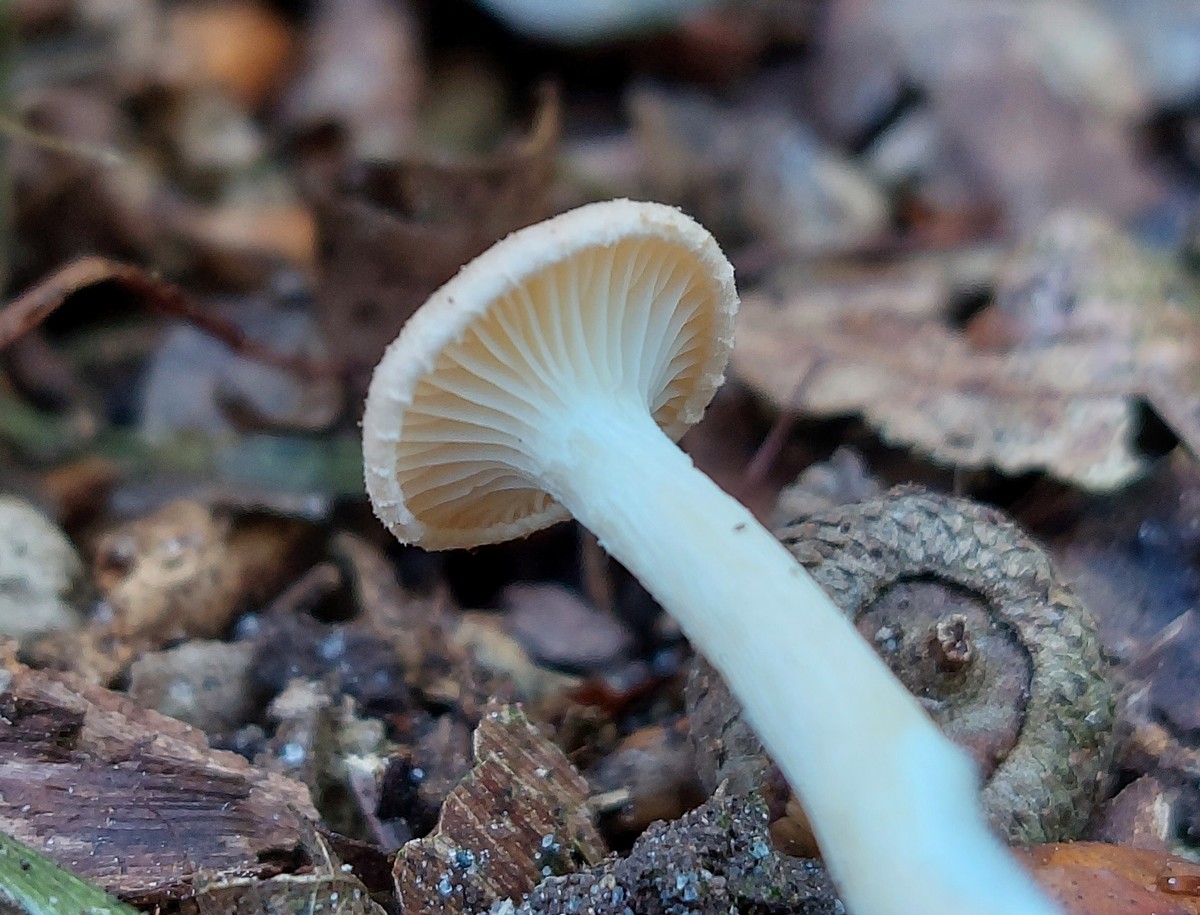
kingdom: Fungi
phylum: Basidiomycota
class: Agaricomycetes
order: Agaricales
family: Tricholomataceae
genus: Infundibulicybe
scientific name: Infundibulicybe gibba
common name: almindelig tragthat
